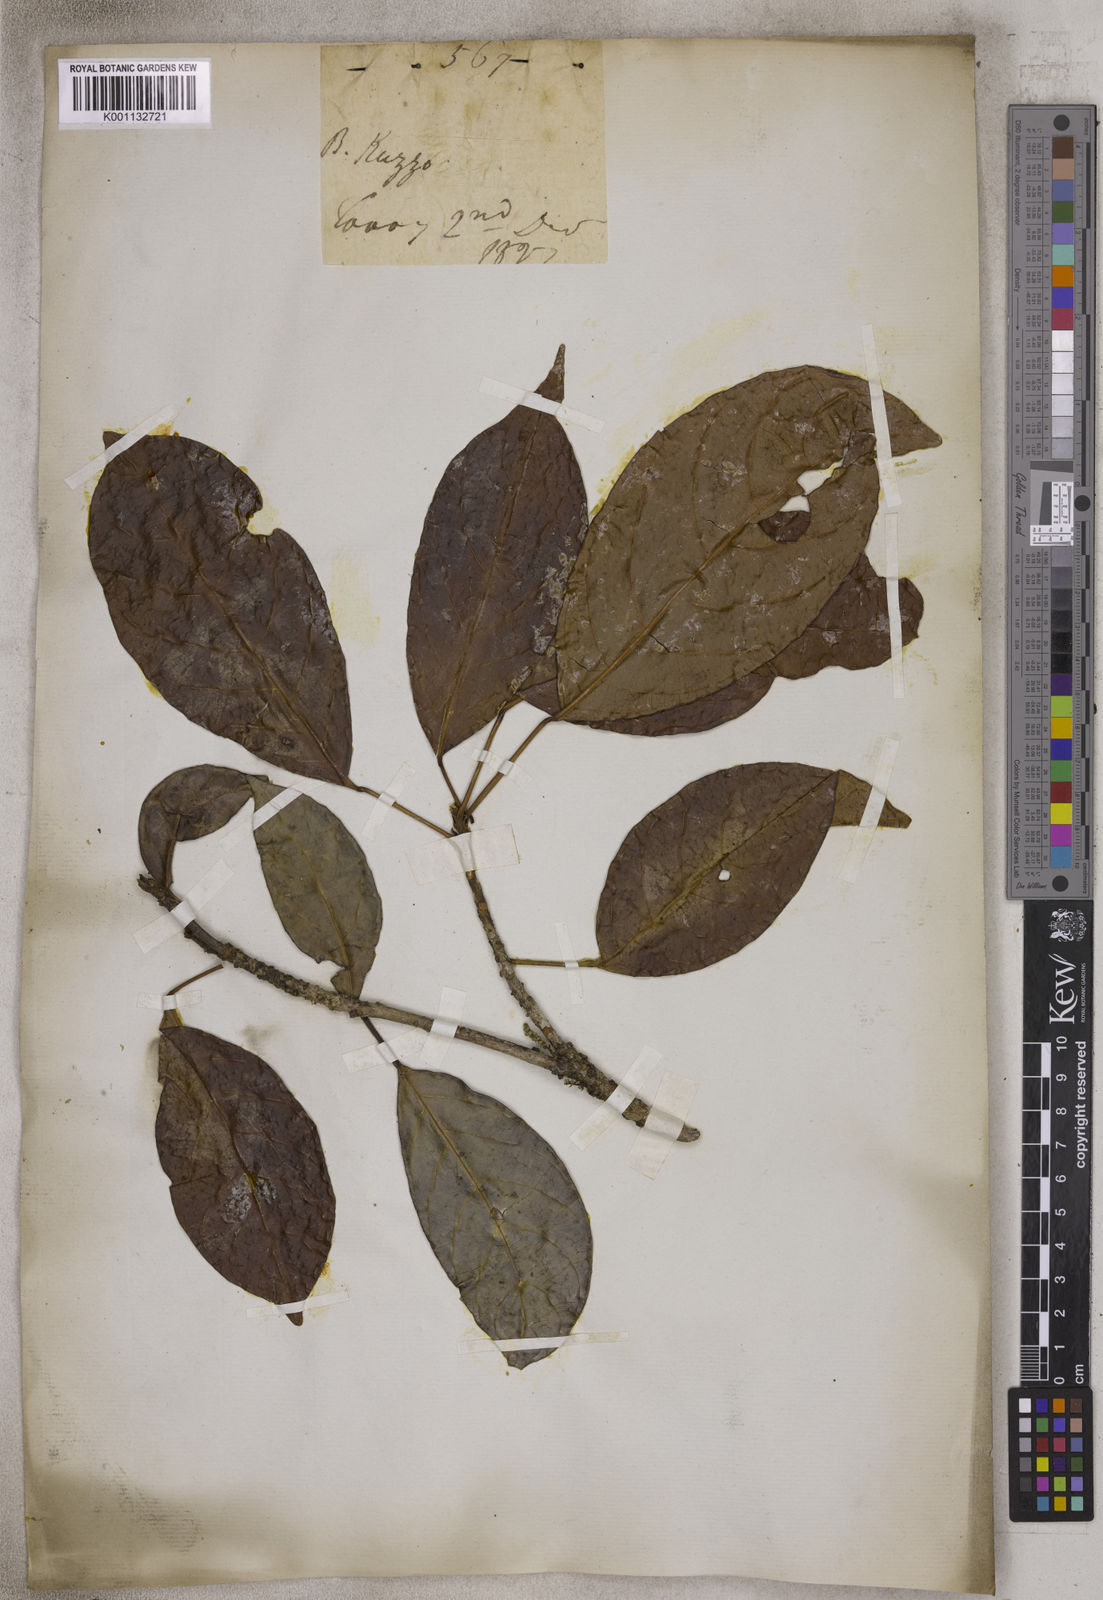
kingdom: Plantae
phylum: Tracheophyta
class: Magnoliopsida
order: Malpighiales
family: Phyllanthaceae
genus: Baccaurea
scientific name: Baccaurea
